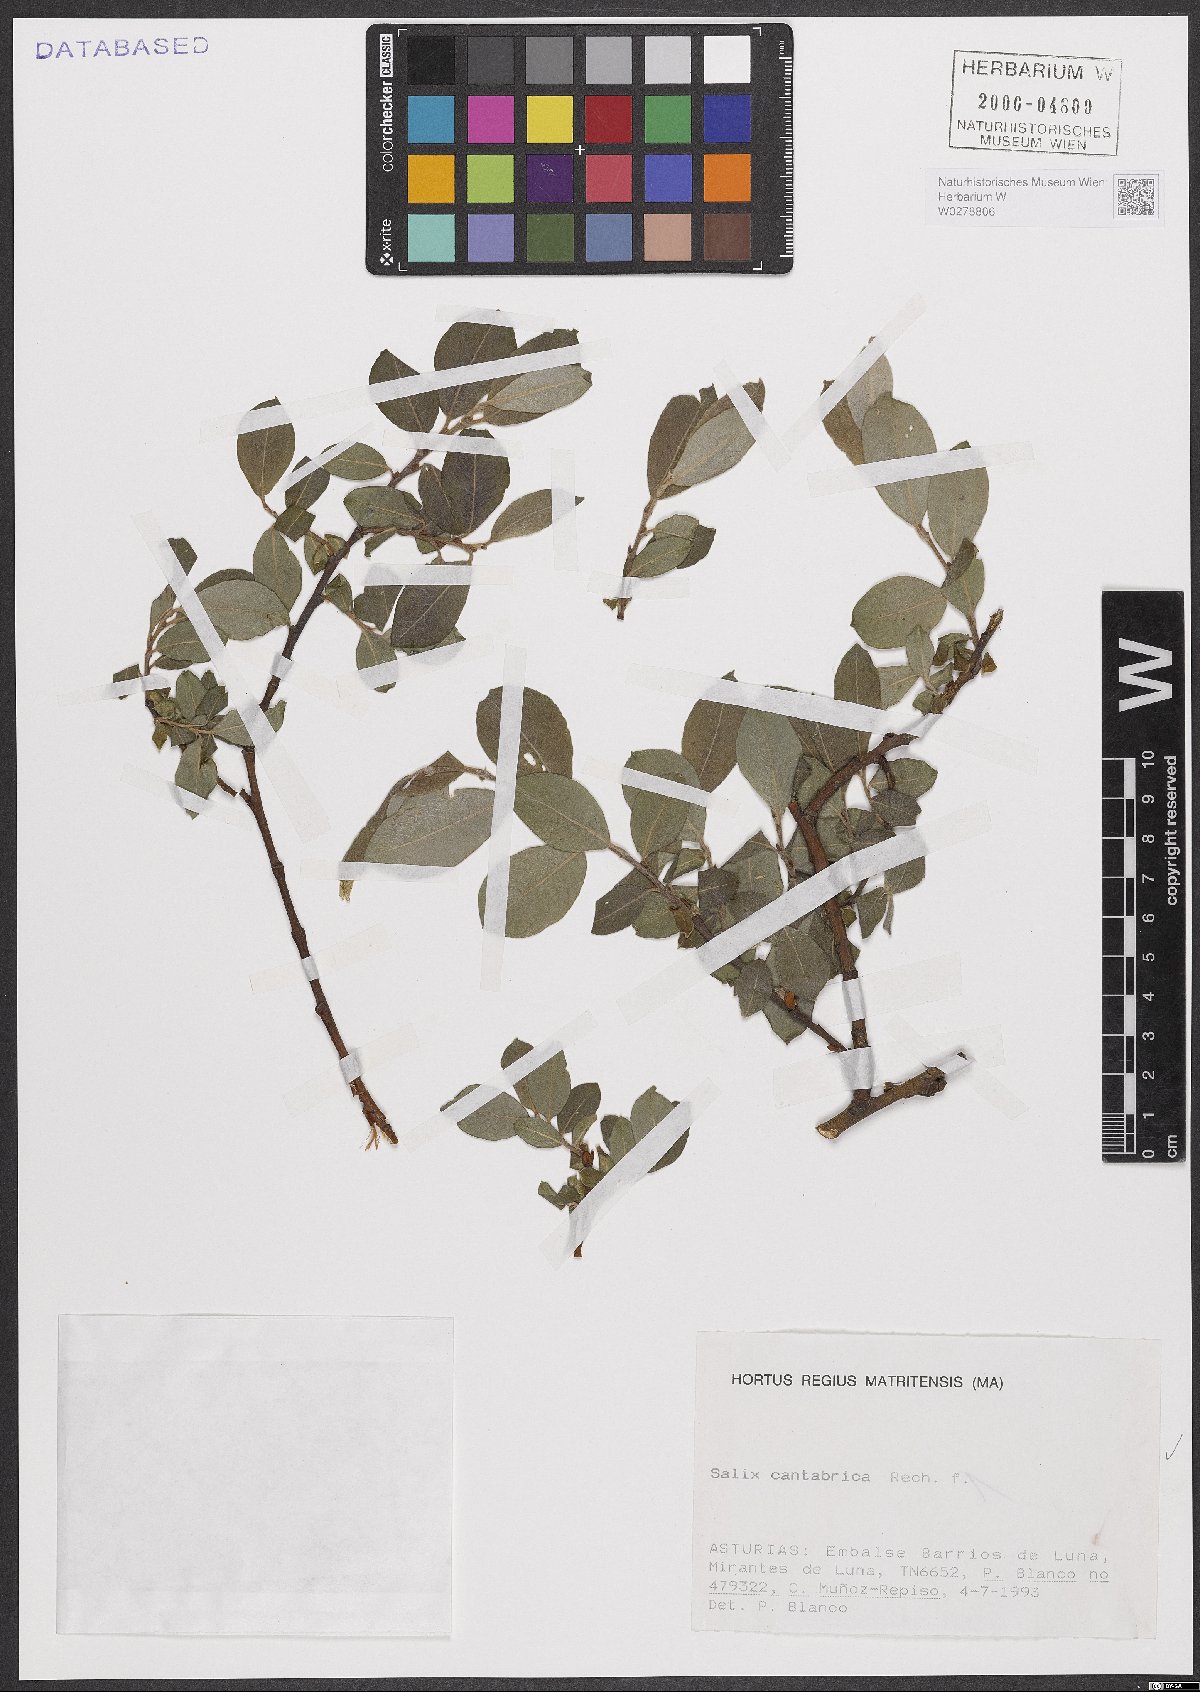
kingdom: Plantae
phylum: Tracheophyta
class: Magnoliopsida
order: Malpighiales
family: Salicaceae
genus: Salix
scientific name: Salix cantabrica
